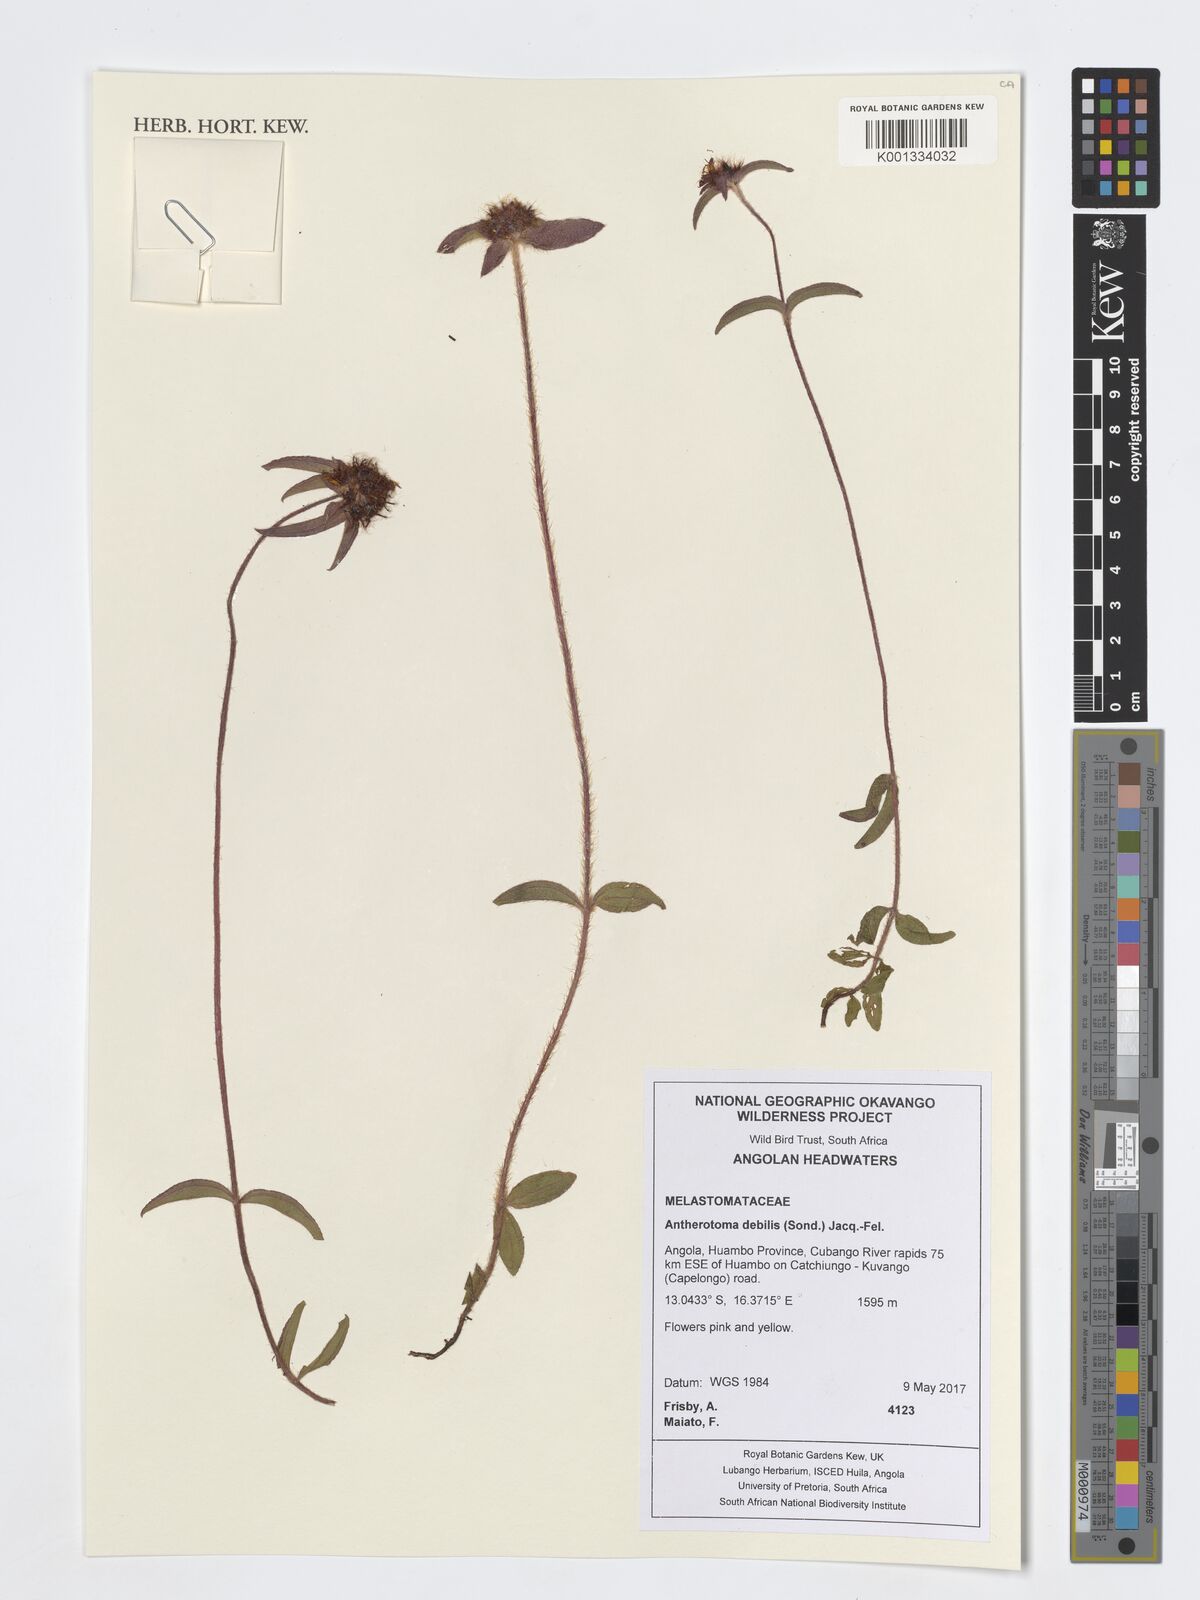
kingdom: Plantae
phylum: Tracheophyta
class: Magnoliopsida
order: Myrtales
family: Melastomataceae
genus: Antherotoma
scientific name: Antherotoma debilis
